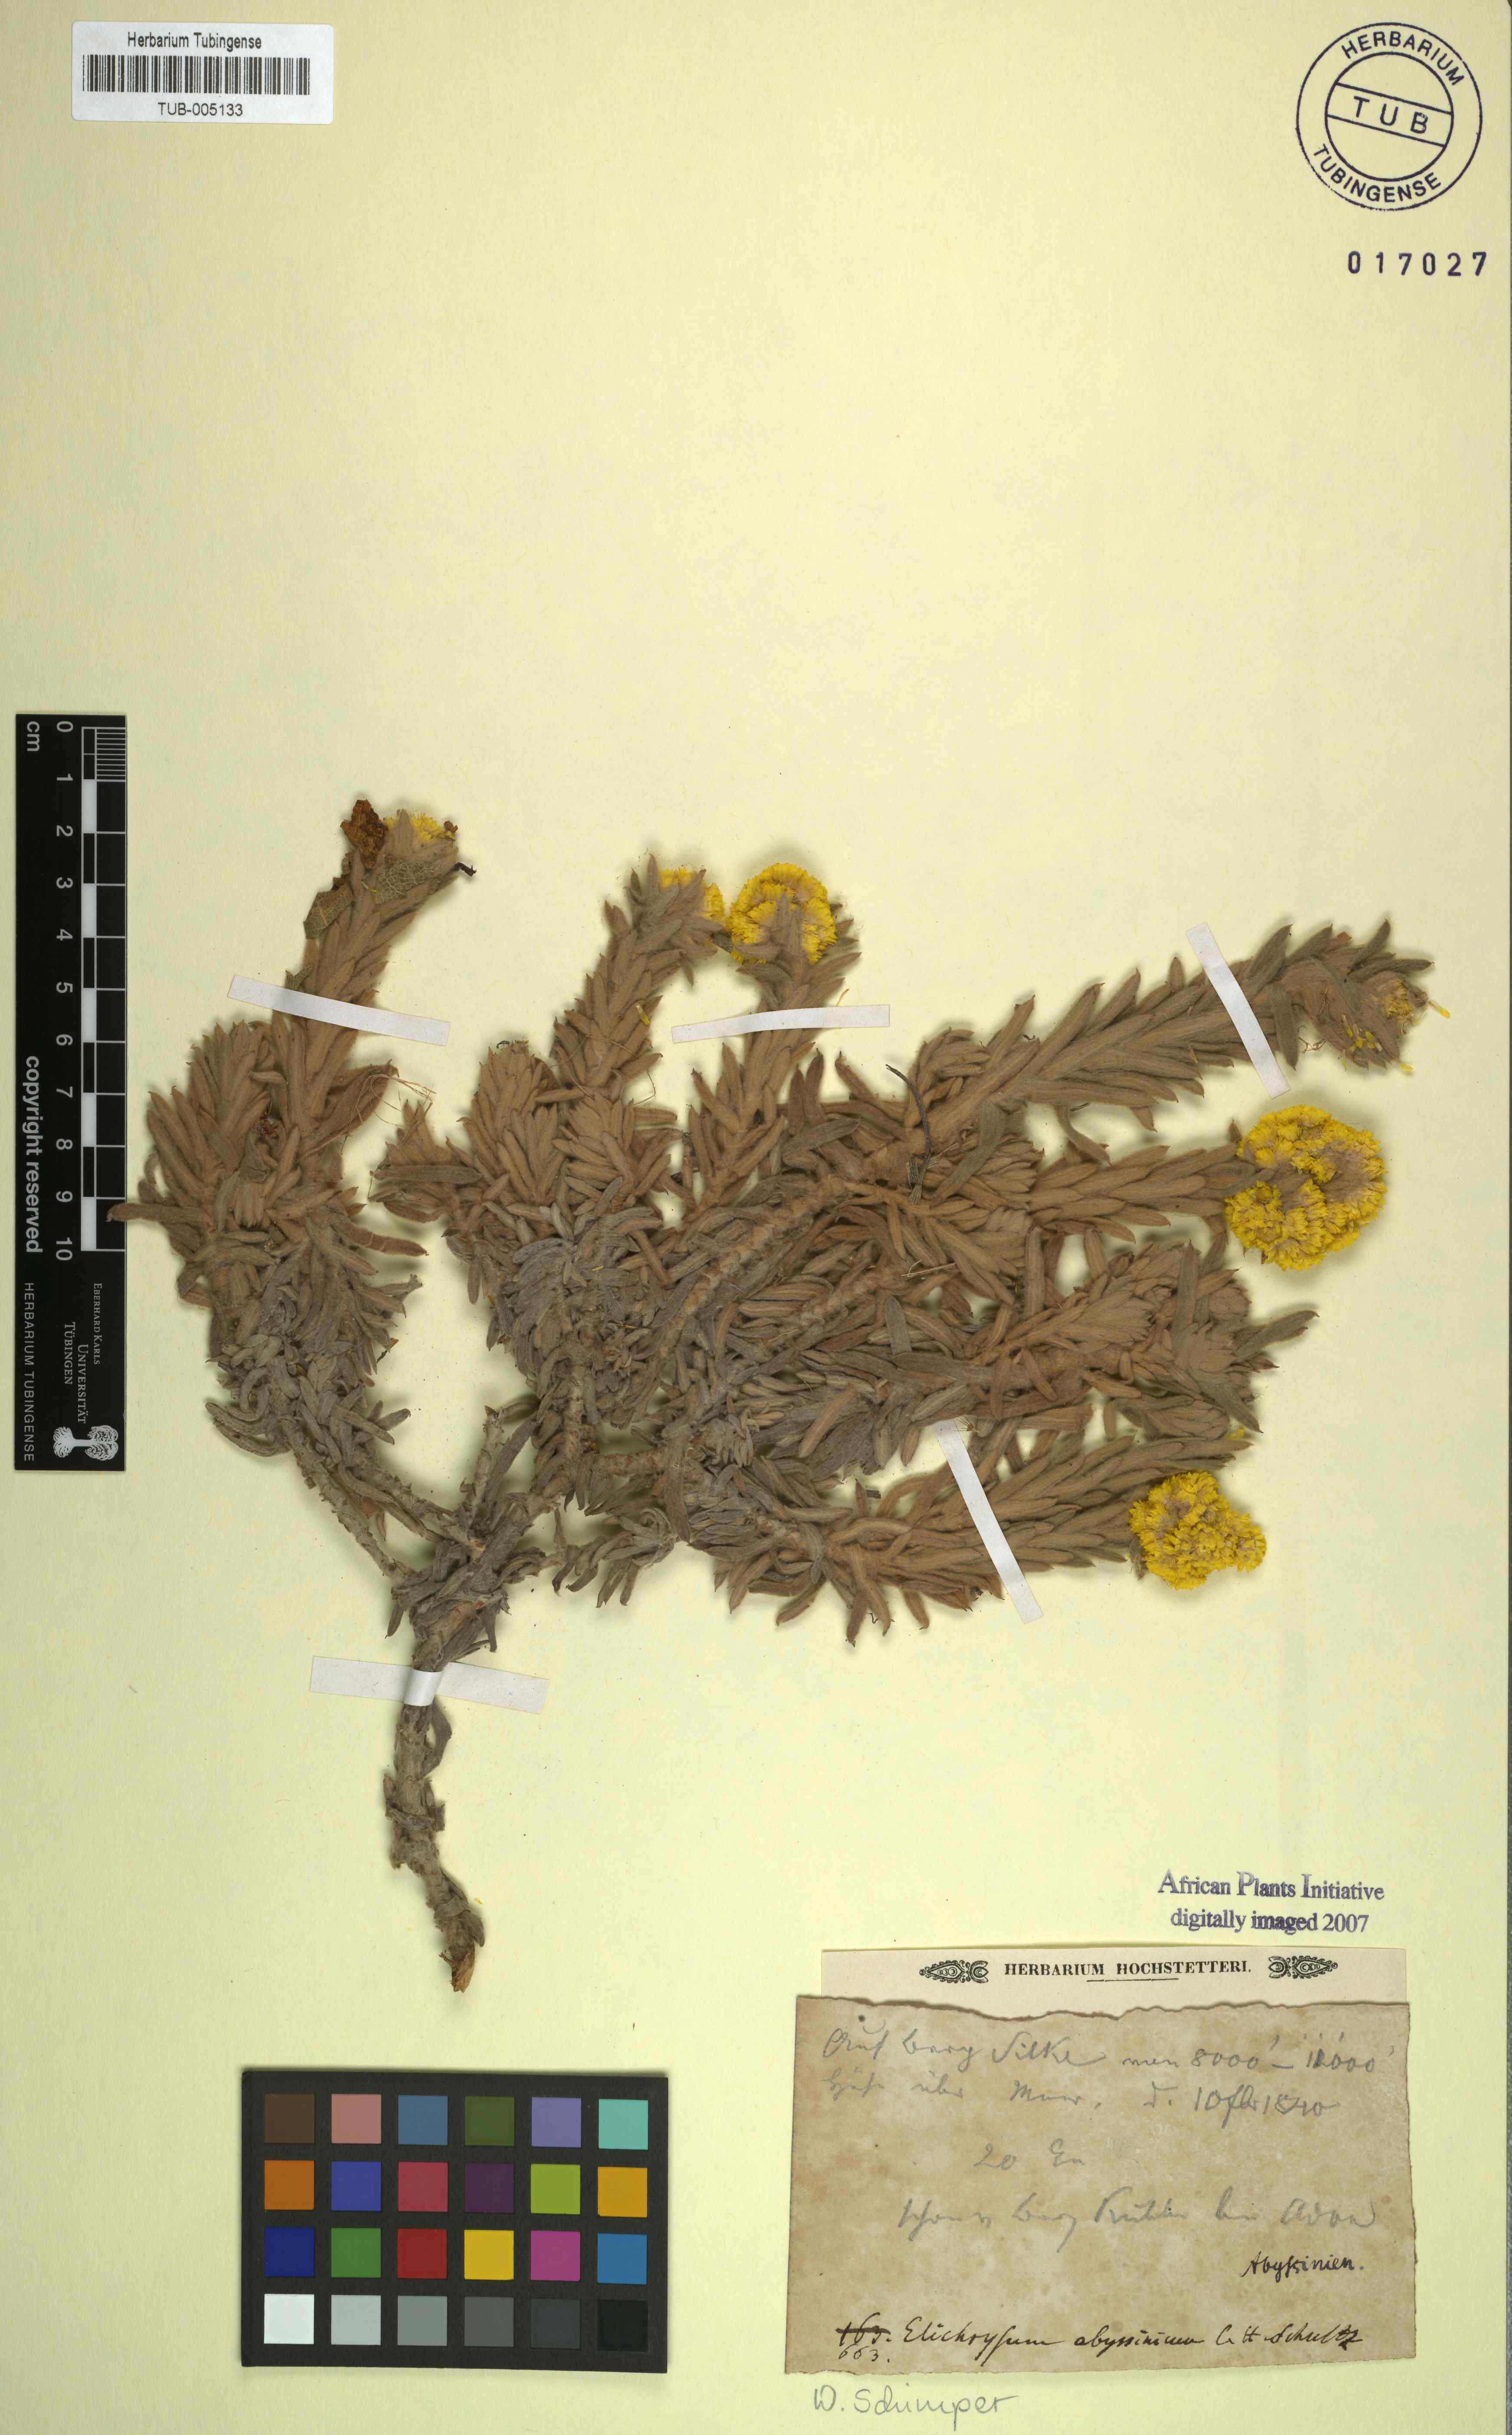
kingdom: Plantae
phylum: Tracheophyta
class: Magnoliopsida
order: Asterales
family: Asteraceae
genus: Helichrysum
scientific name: Helichrysum abyssinicum
